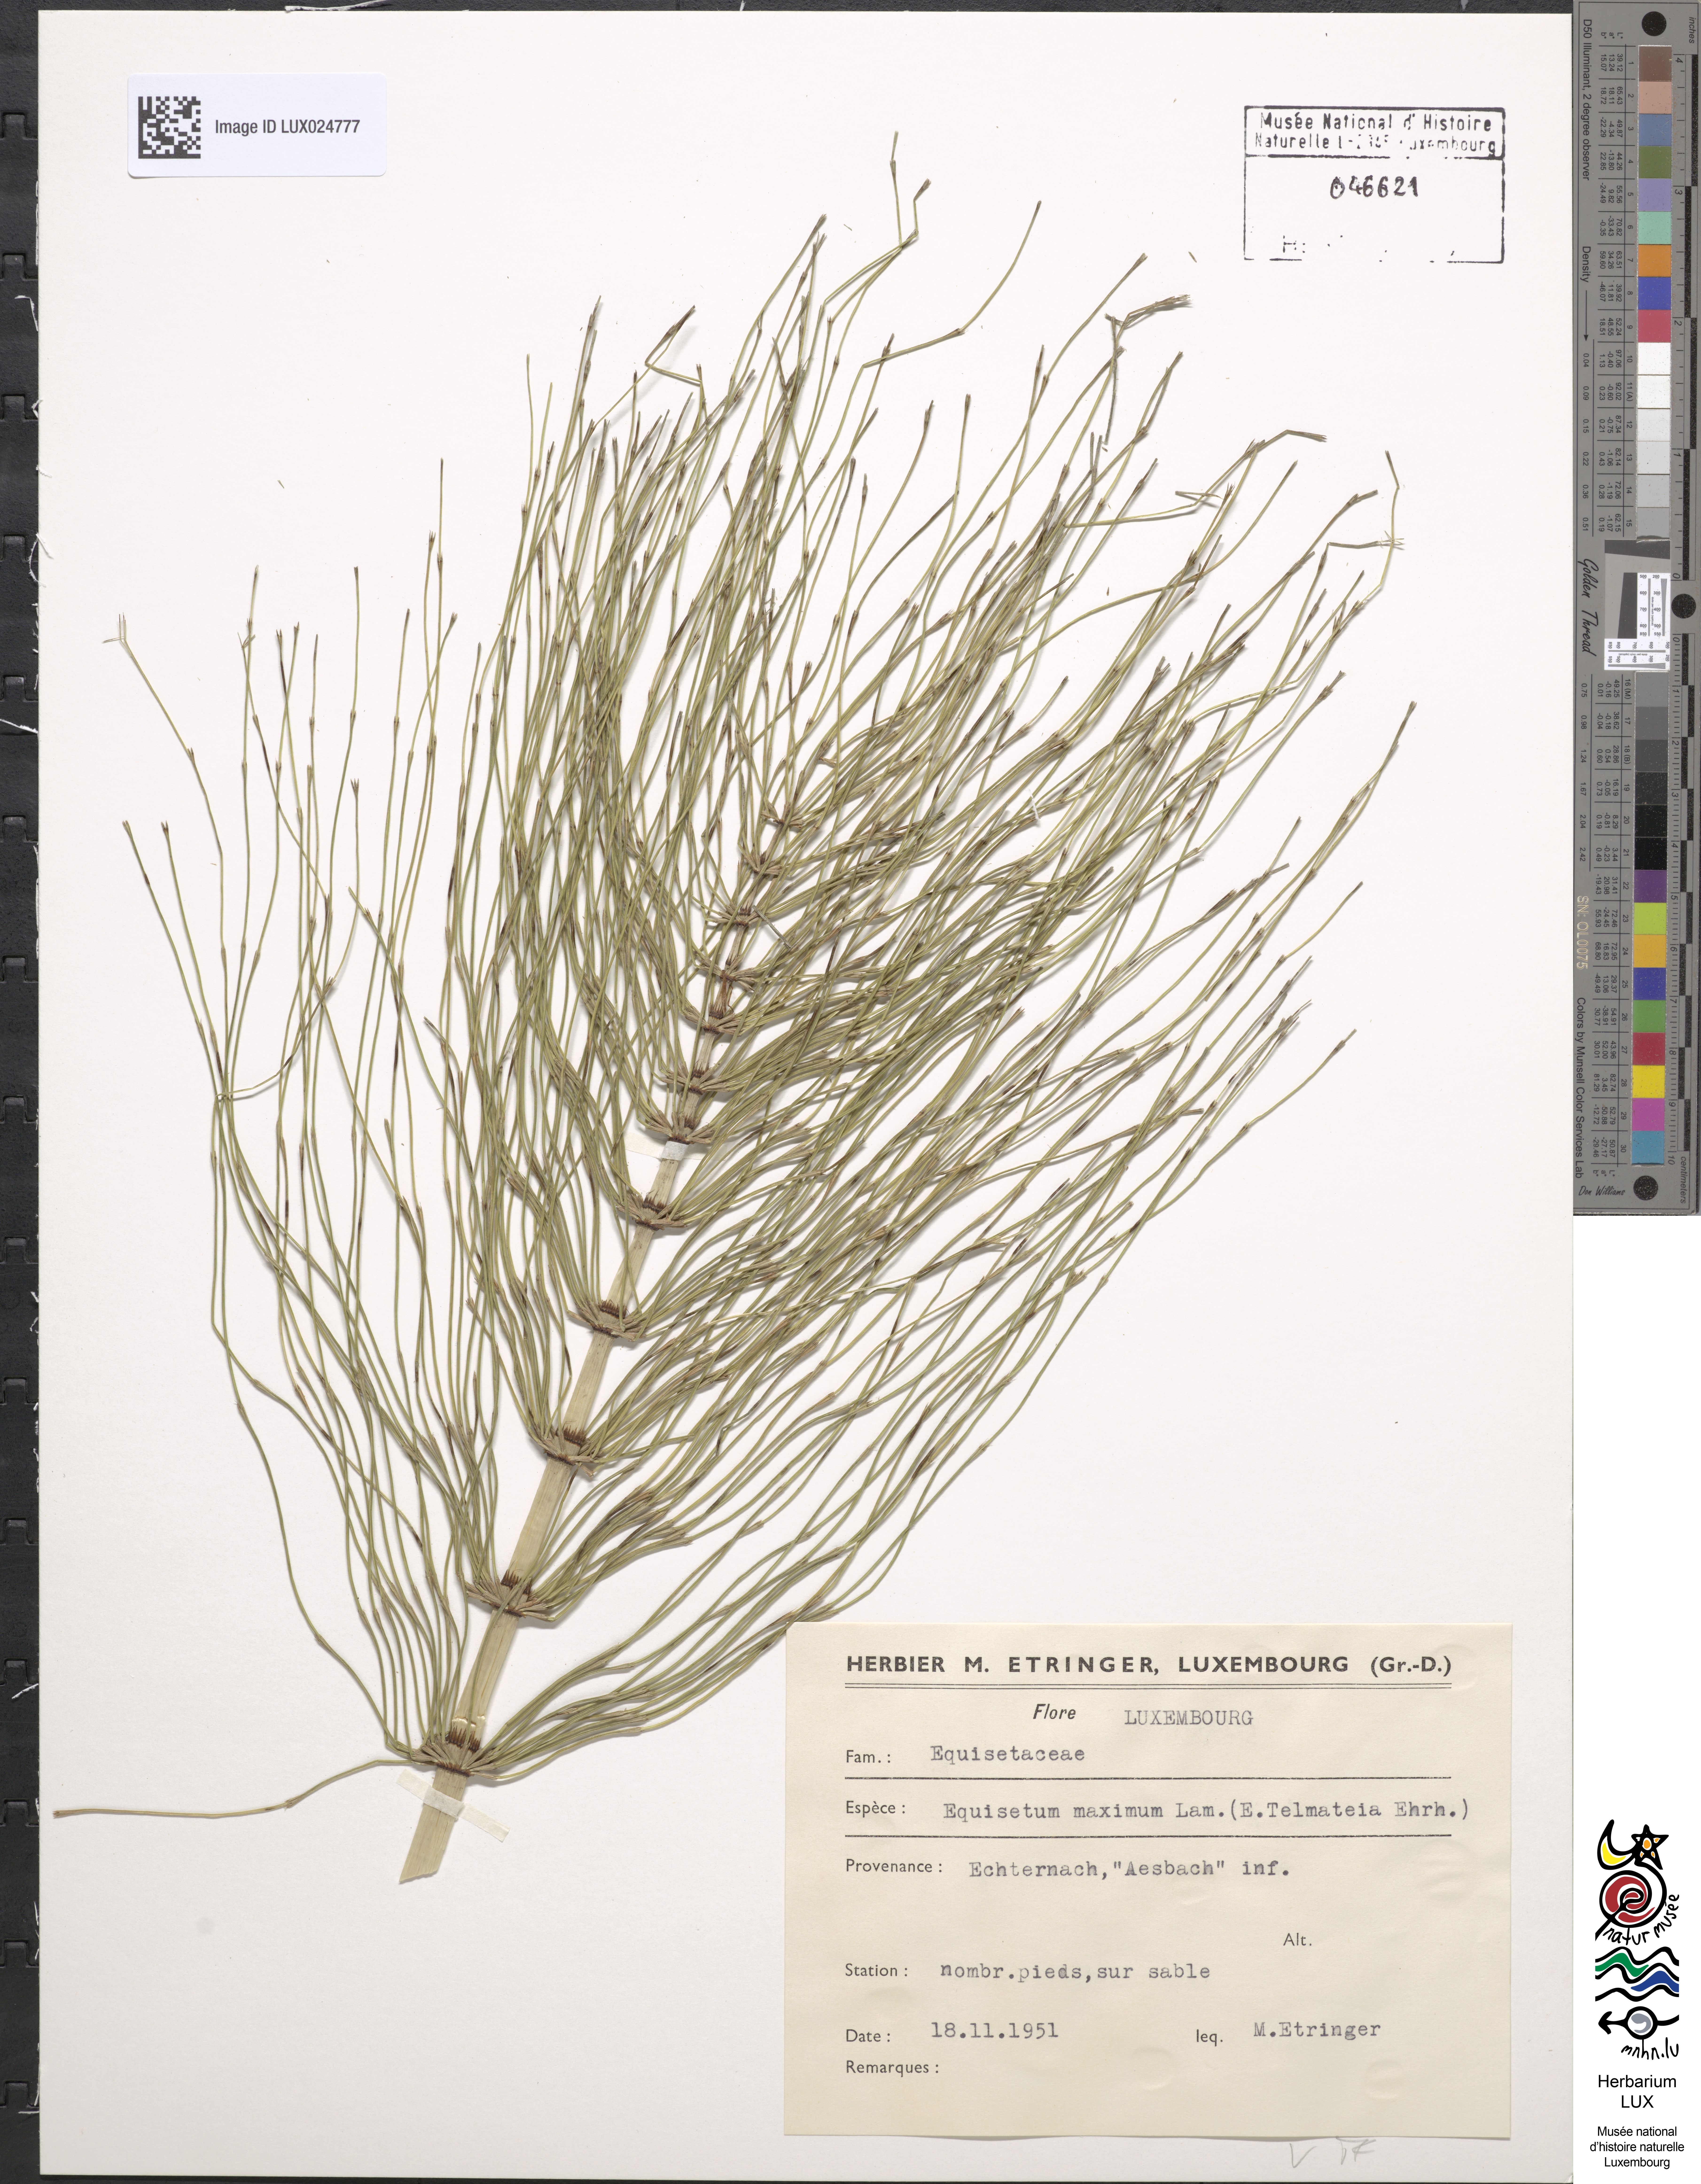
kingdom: Plantae
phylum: Tracheophyta
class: Polypodiopsida
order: Equisetales
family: Equisetaceae
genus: Equisetum
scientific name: Equisetum telmateia
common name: Great horsetail
